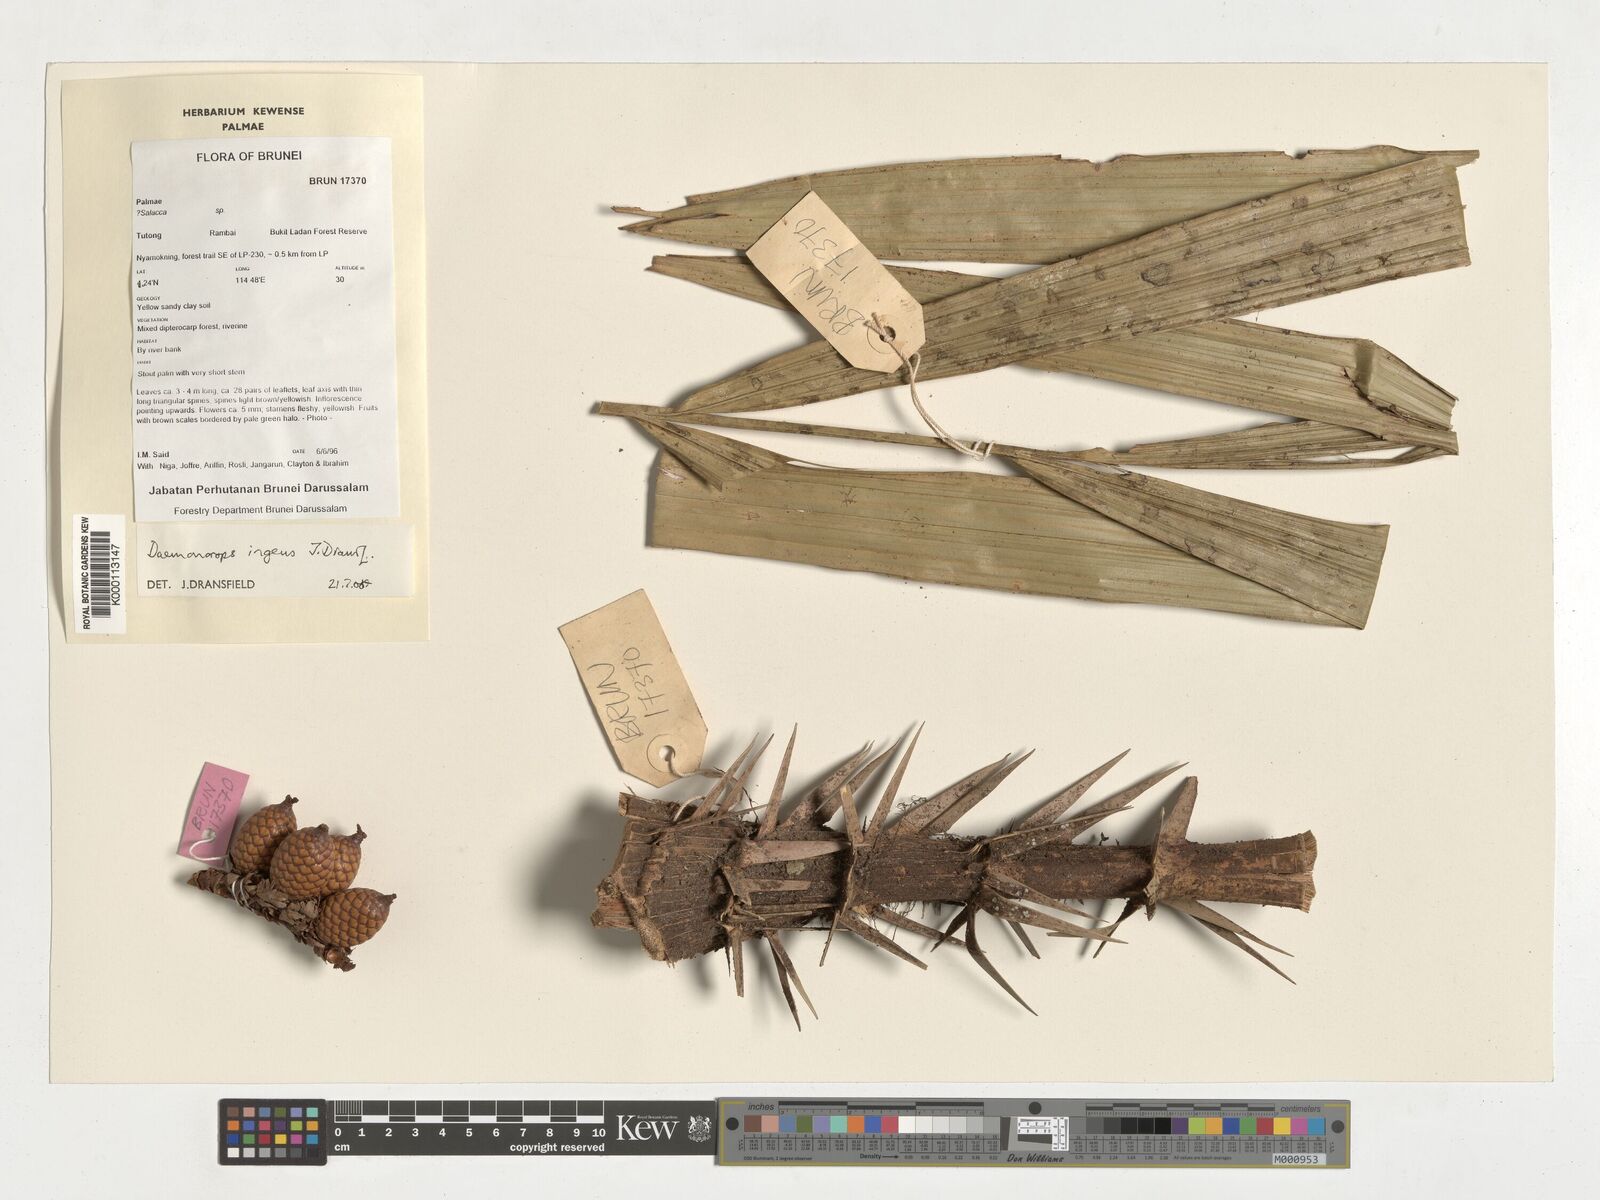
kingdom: Plantae
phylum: Tracheophyta
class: Liliopsida
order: Arecales
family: Arecaceae
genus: Calamus
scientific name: Calamus ingens
